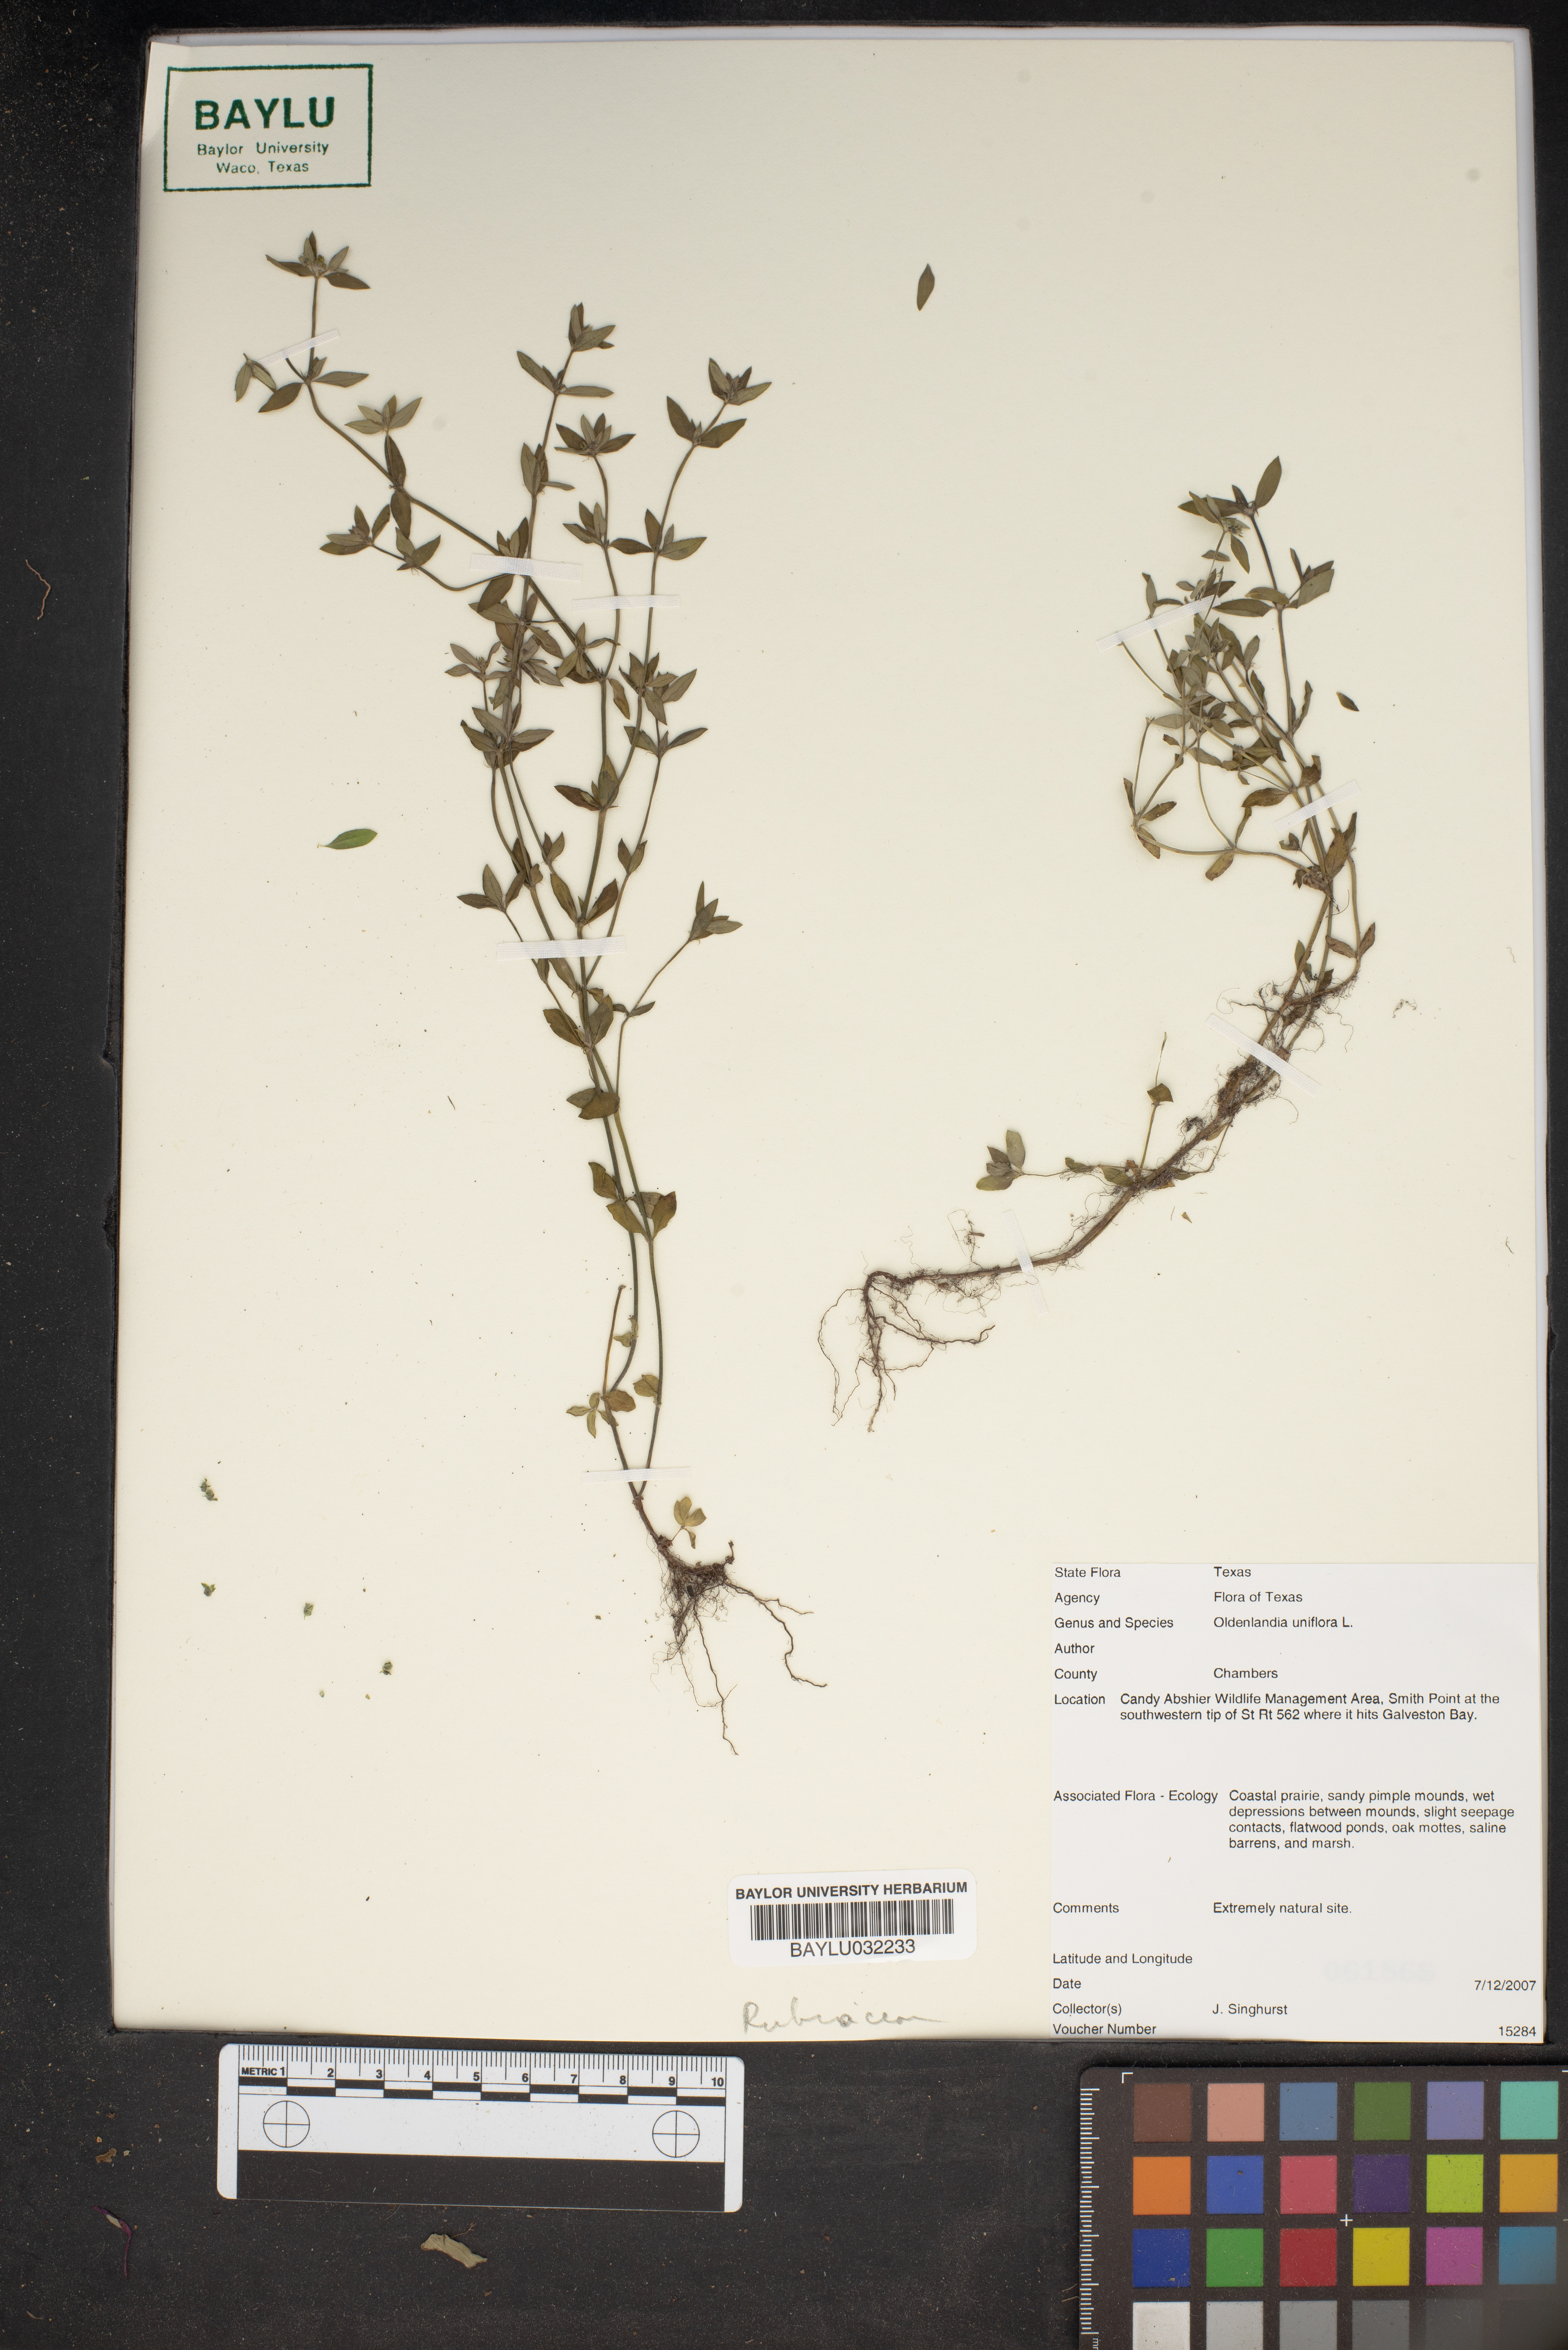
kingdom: Plantae
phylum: Tracheophyta
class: Magnoliopsida
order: Gentianales
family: Rubiaceae
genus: Edrastima
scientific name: Edrastima uniflora
